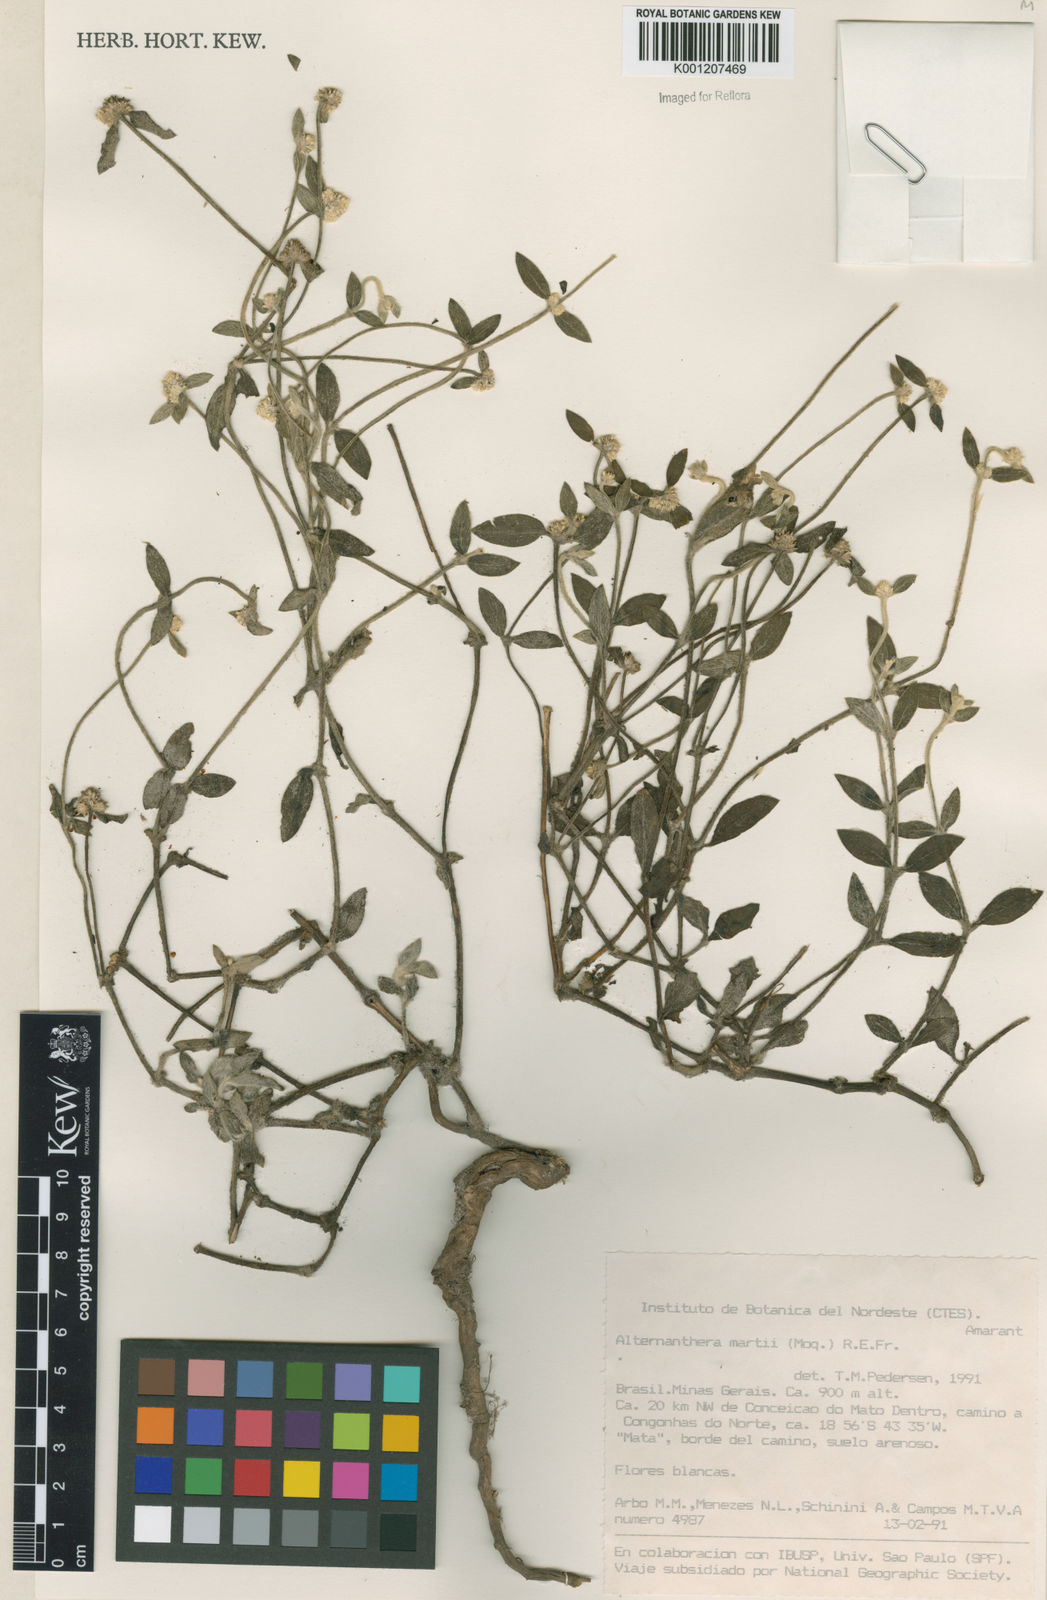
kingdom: Plantae
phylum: Tracheophyta
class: Magnoliopsida
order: Caryophyllales
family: Amaranthaceae
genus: Alternanthera
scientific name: Alternanthera martii
